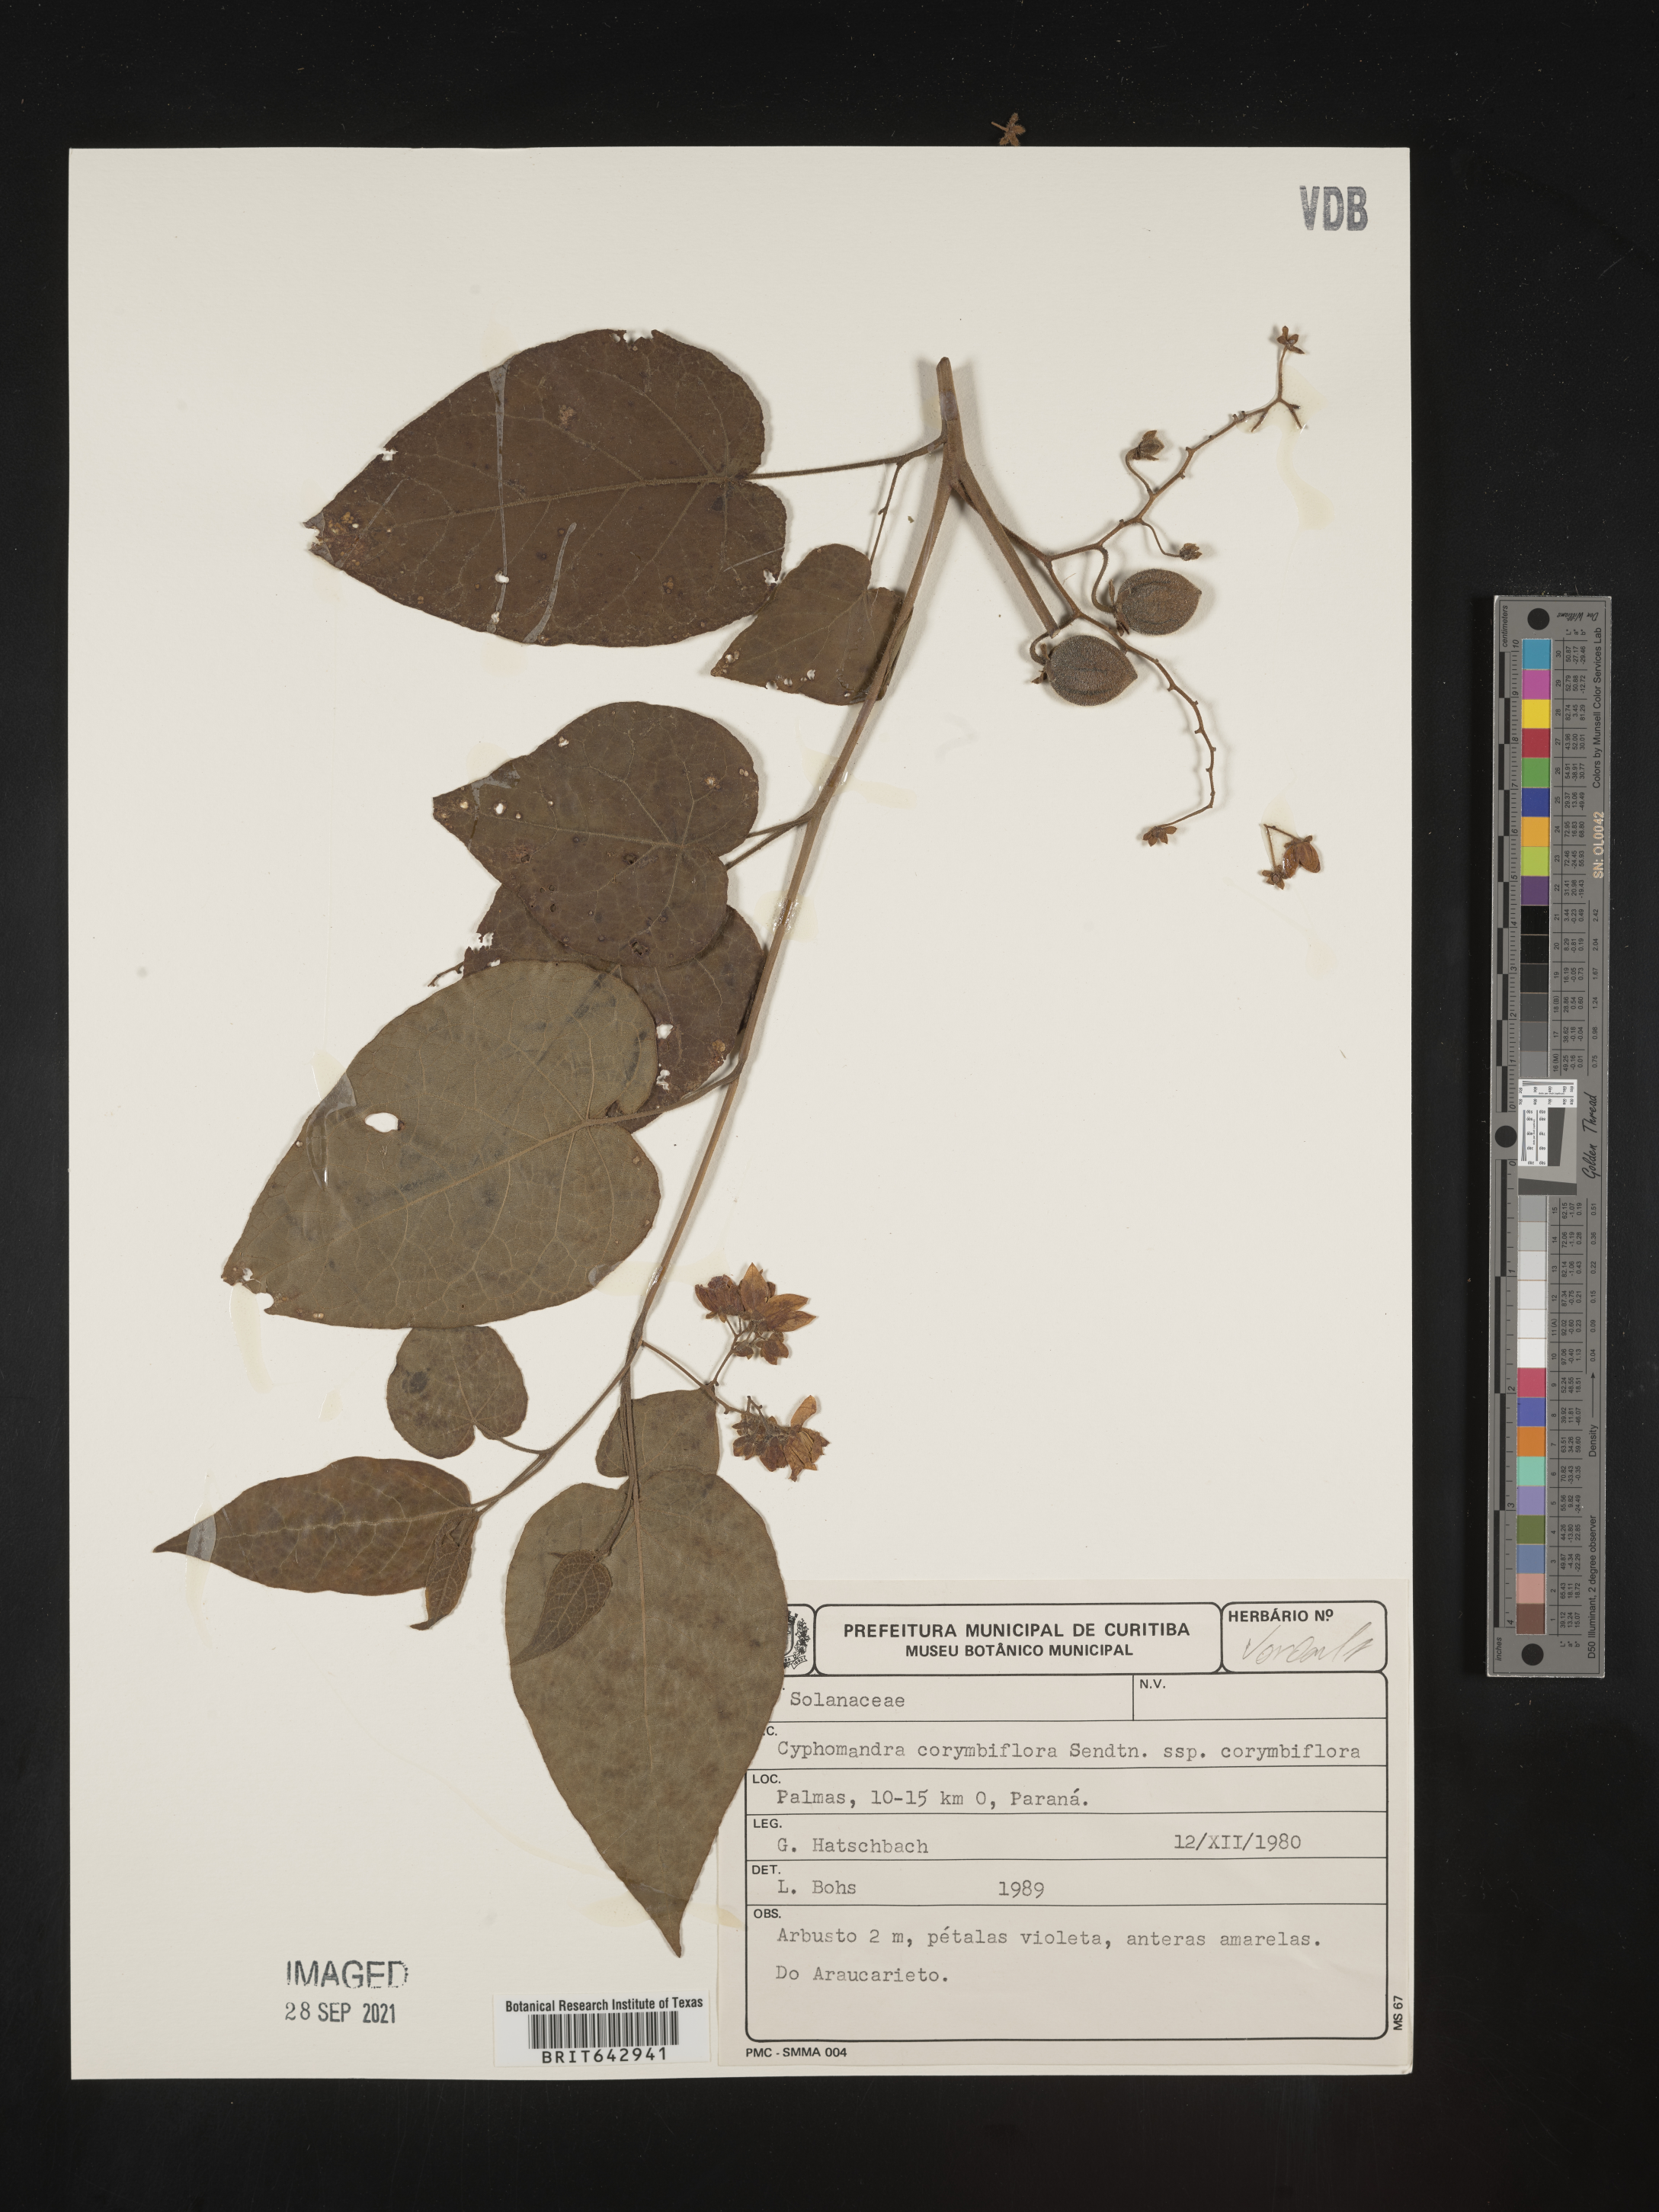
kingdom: Plantae
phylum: Tracheophyta
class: Magnoliopsida
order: Solanales
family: Solanaceae
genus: Solanum
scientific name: Solanum
